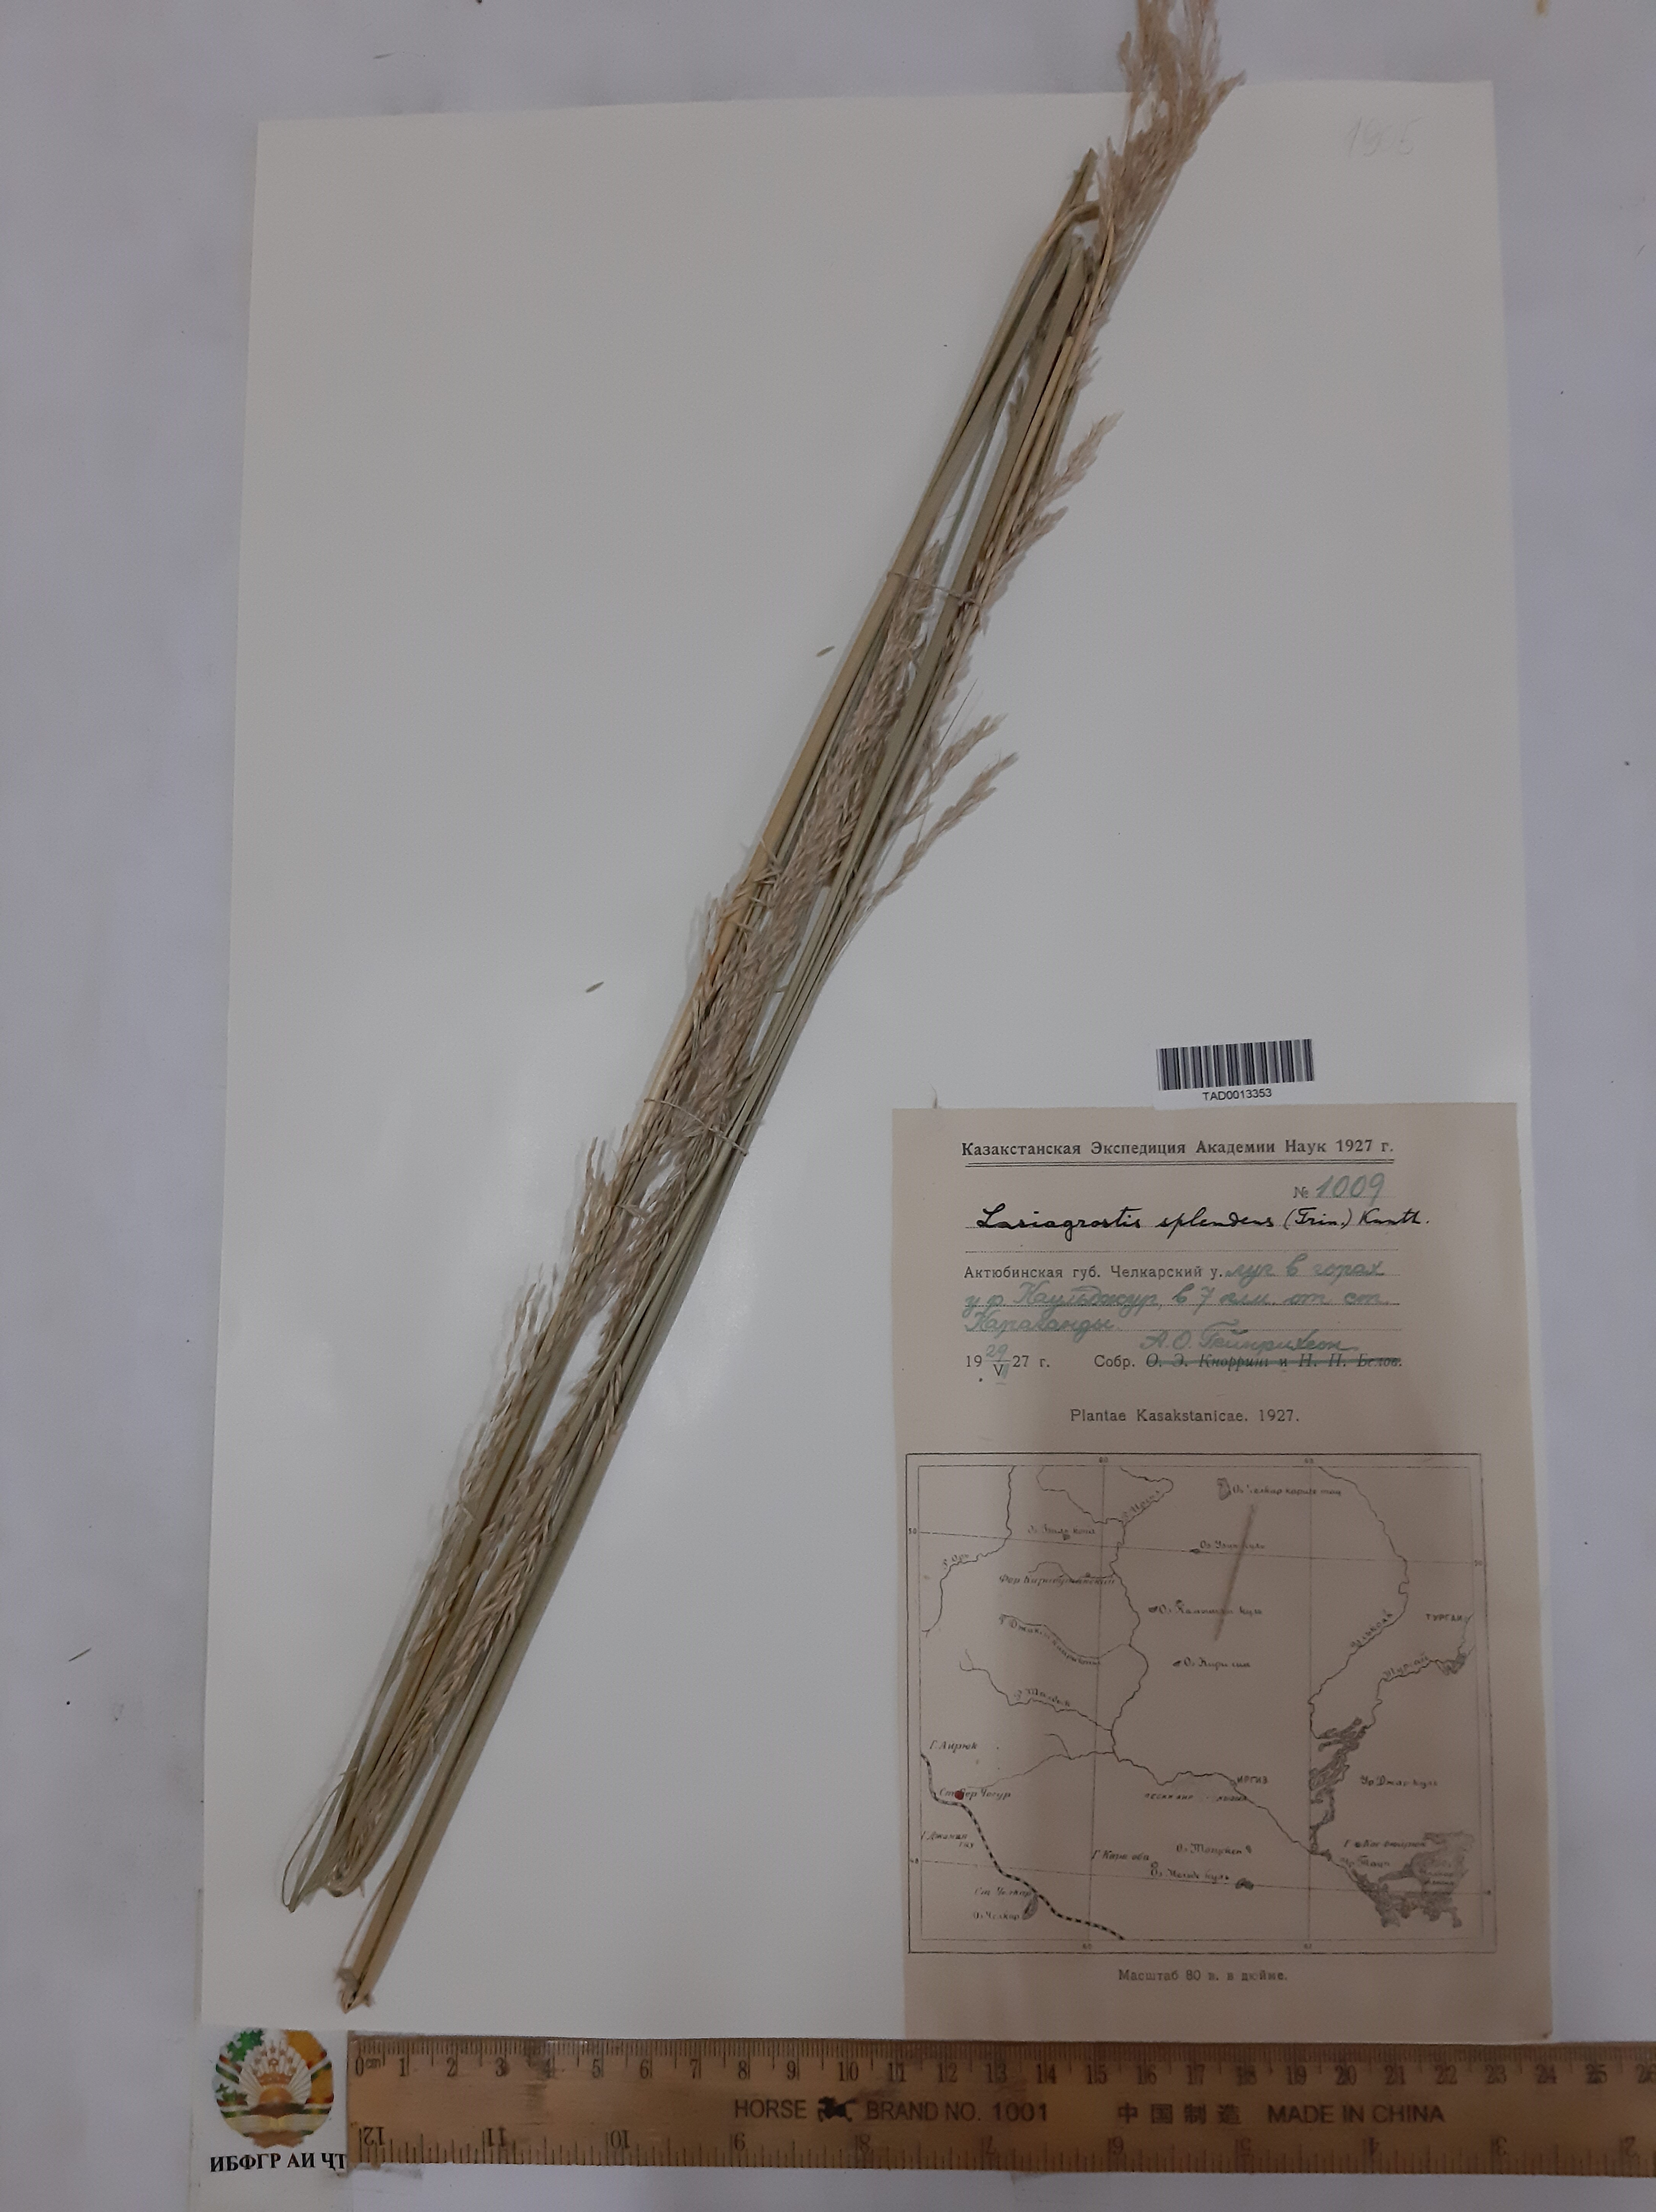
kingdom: Plantae
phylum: Tracheophyta
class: Liliopsida
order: Poales
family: Poaceae
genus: Neotrinia
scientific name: Neotrinia splendens
